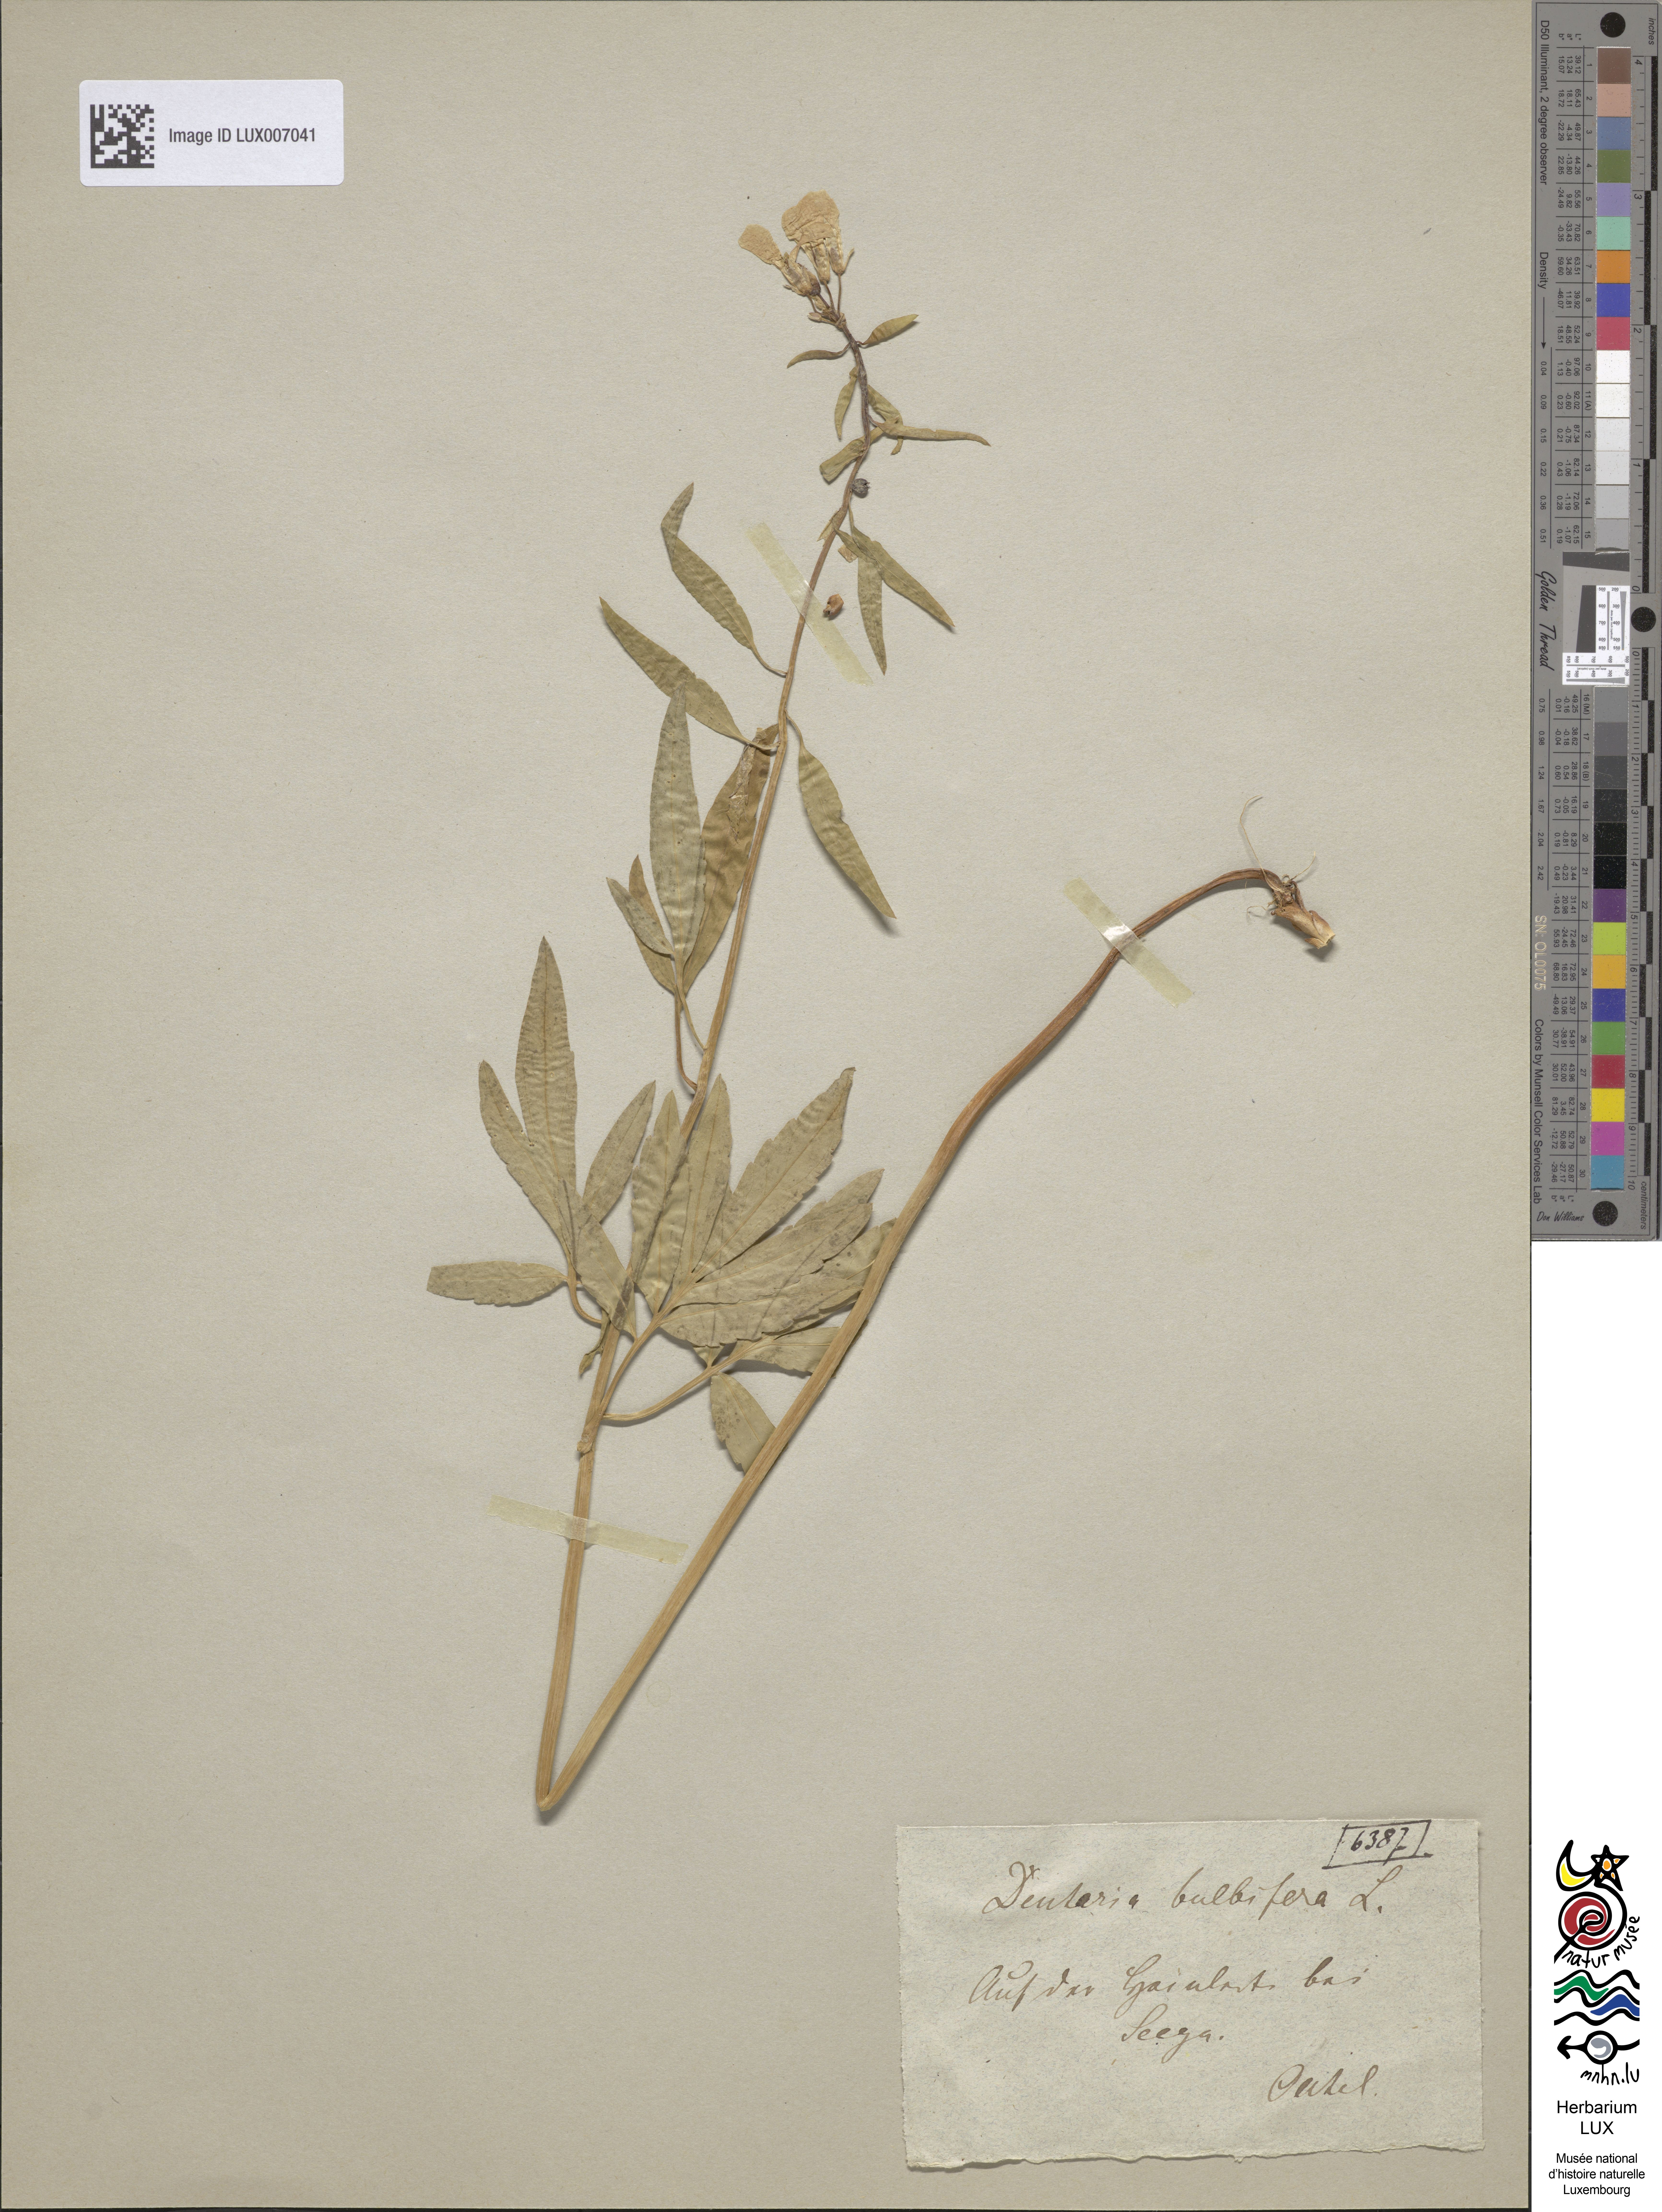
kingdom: Plantae
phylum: Tracheophyta
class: Magnoliopsida
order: Brassicales
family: Brassicaceae
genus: Cardamine
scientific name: Cardamine bulbifera
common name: Coralroot bittercress
